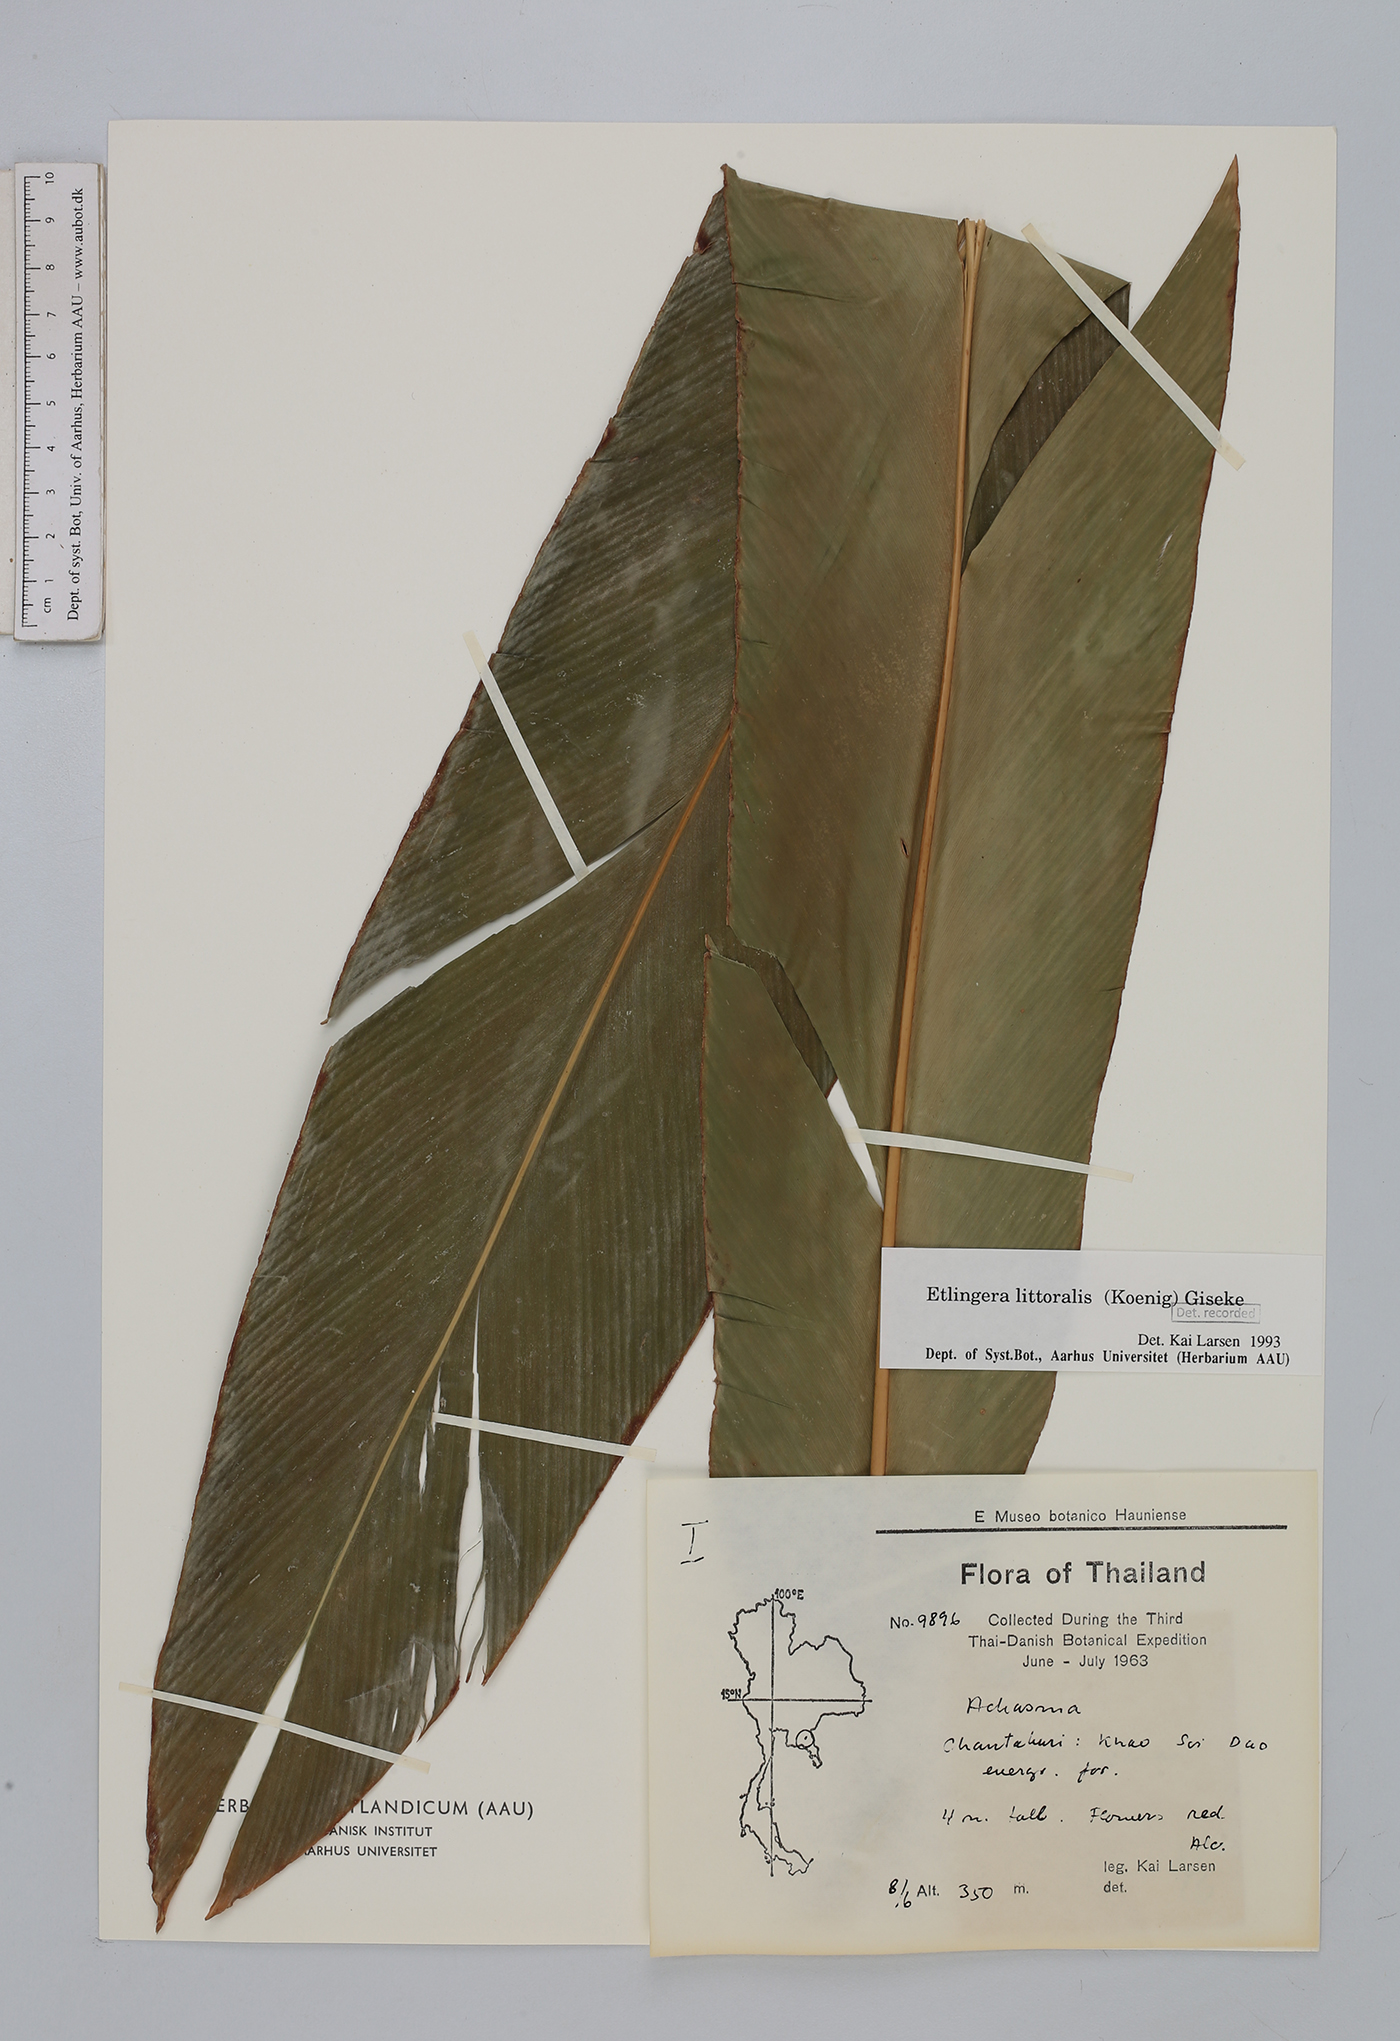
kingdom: Plantae
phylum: Tracheophyta
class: Liliopsida
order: Zingiberales
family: Zingiberaceae
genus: Etlingera
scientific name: Etlingera littoralis
